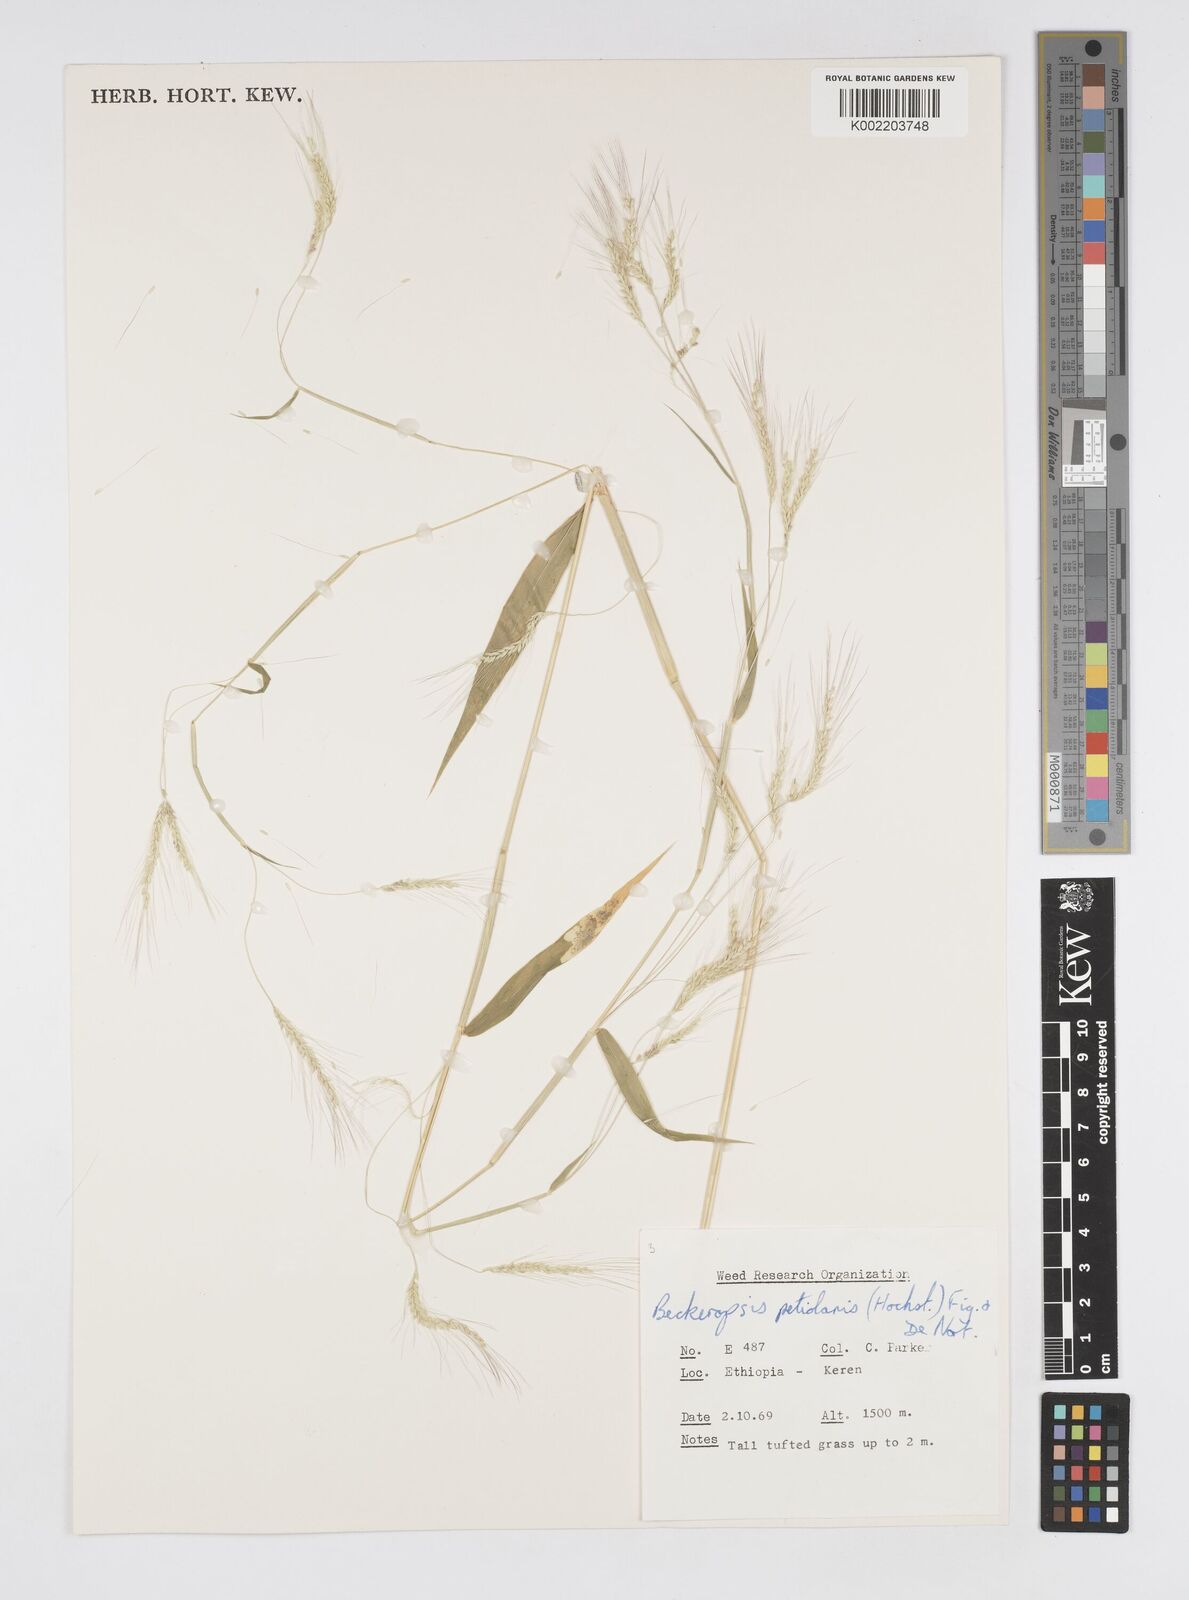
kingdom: Plantae
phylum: Tracheophyta
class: Liliopsida
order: Poales
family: Poaceae
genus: Cenchrus
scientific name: Cenchrus petiolaris
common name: Grass
